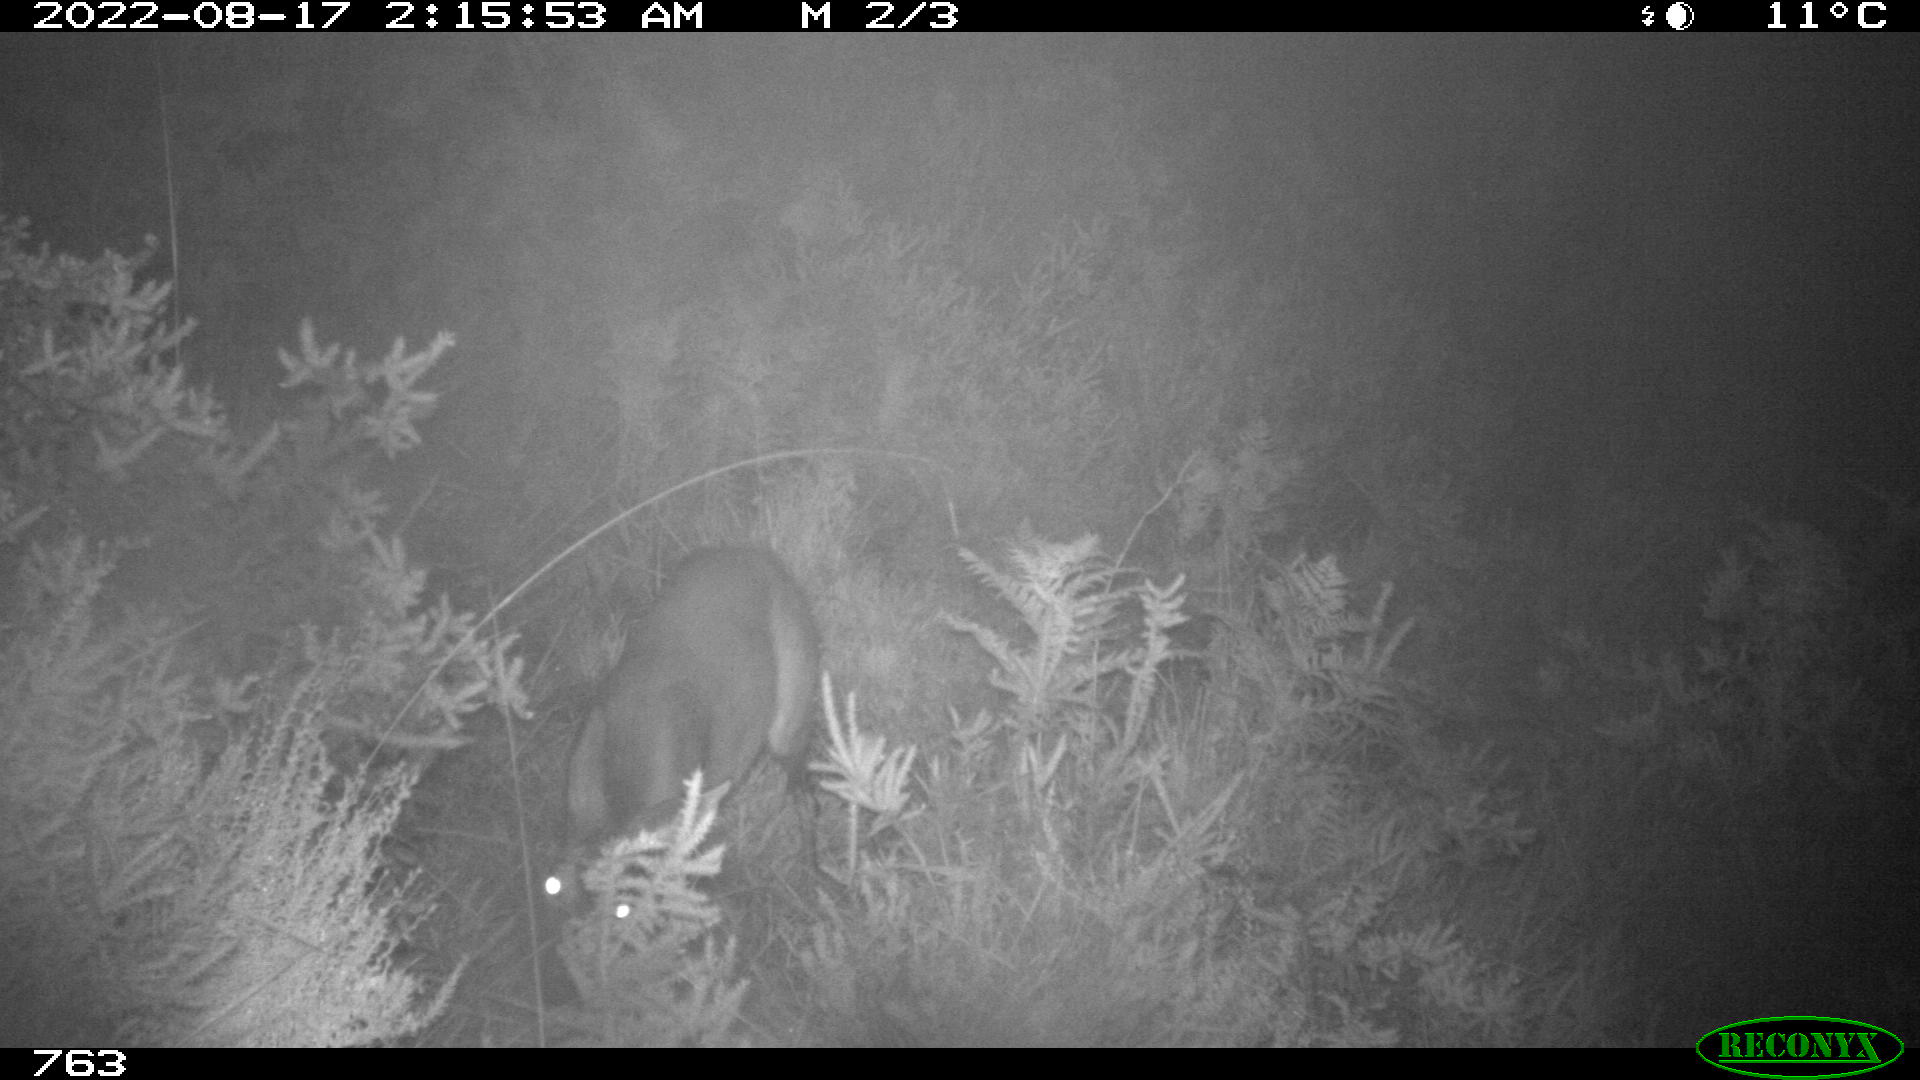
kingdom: Animalia
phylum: Chordata
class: Mammalia
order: Artiodactyla
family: Cervidae
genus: Capreolus
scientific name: Capreolus capreolus
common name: Western roe deer
